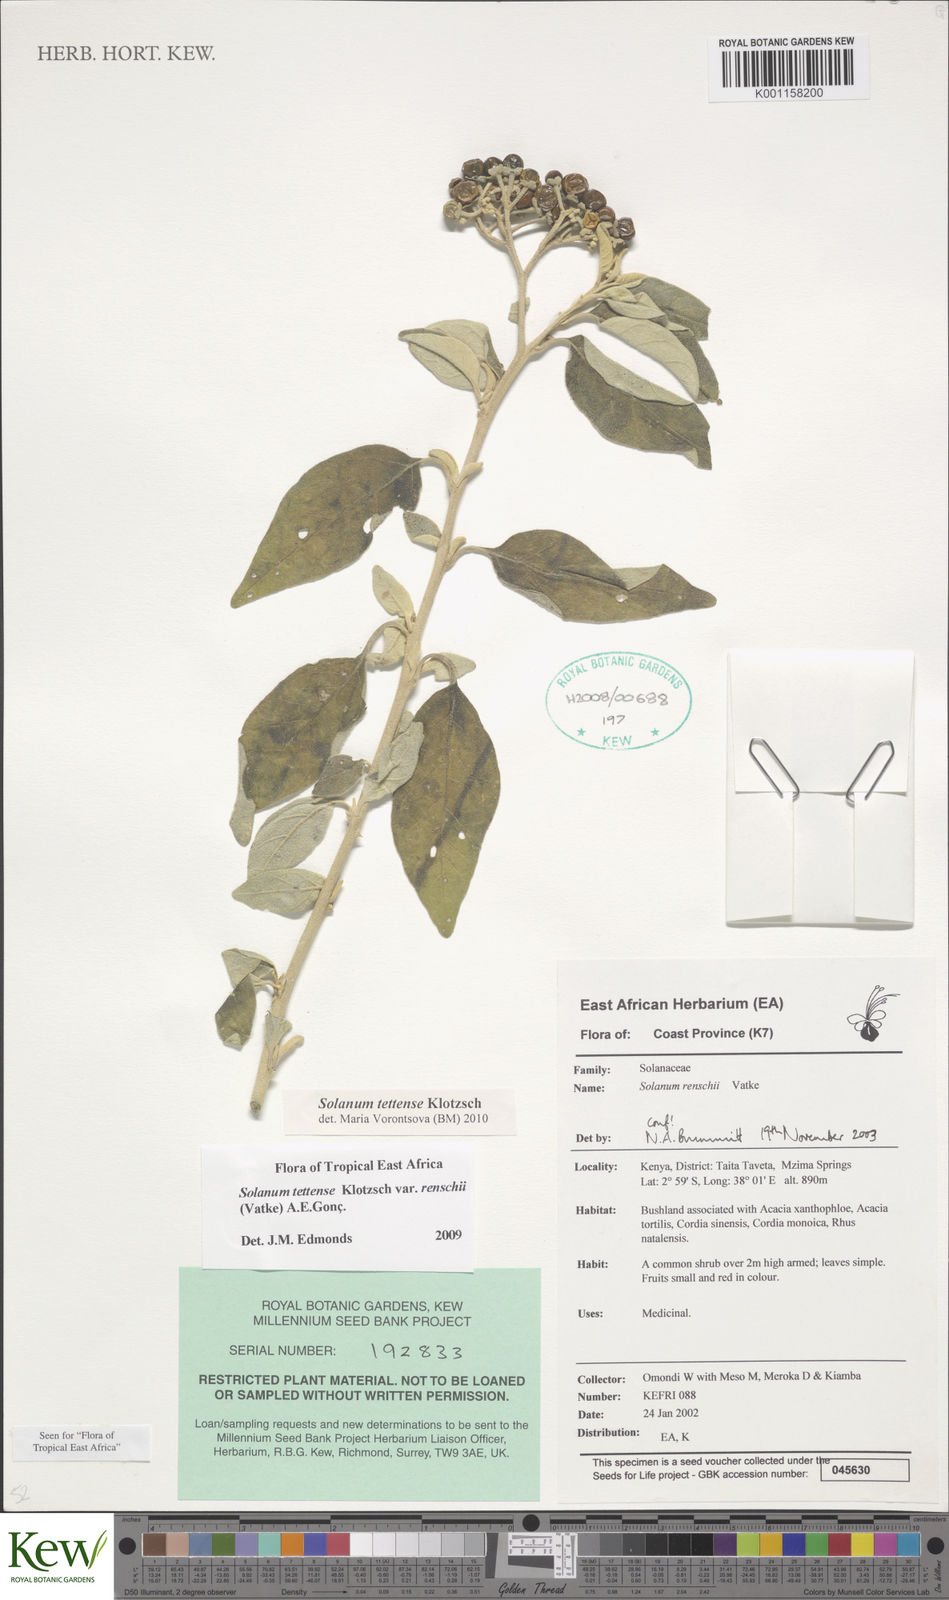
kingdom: Plantae
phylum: Tracheophyta
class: Magnoliopsida
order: Solanales
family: Solanaceae
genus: Solanum
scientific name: Solanum tettense
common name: Mozambique bitter apple
